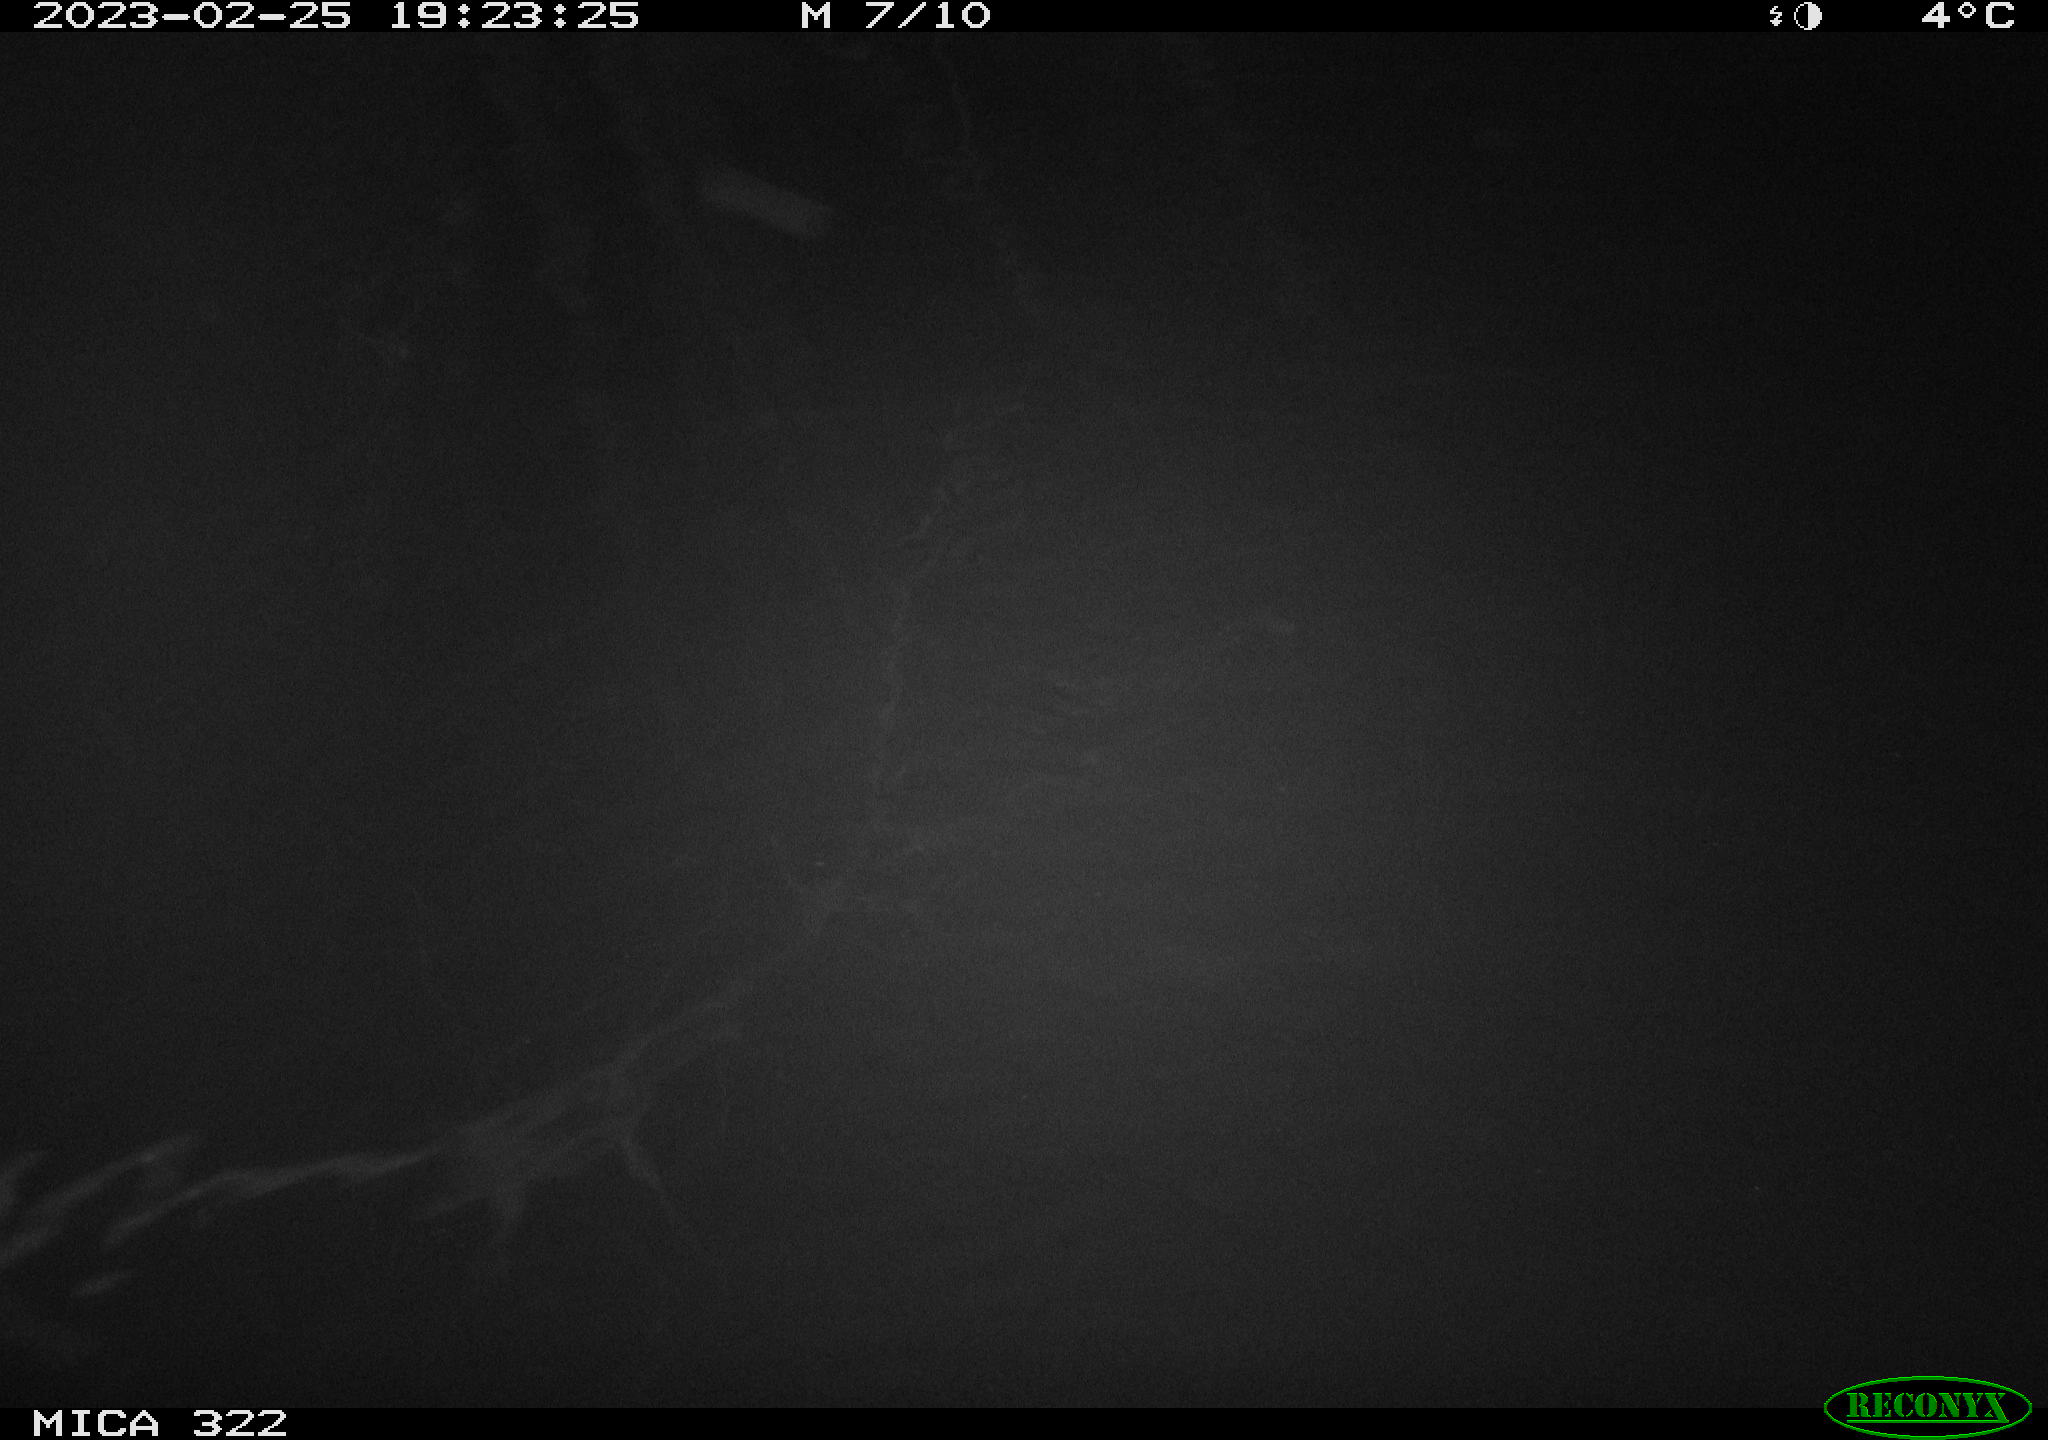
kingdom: Animalia
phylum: Chordata
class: Mammalia
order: Rodentia
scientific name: Rodentia
